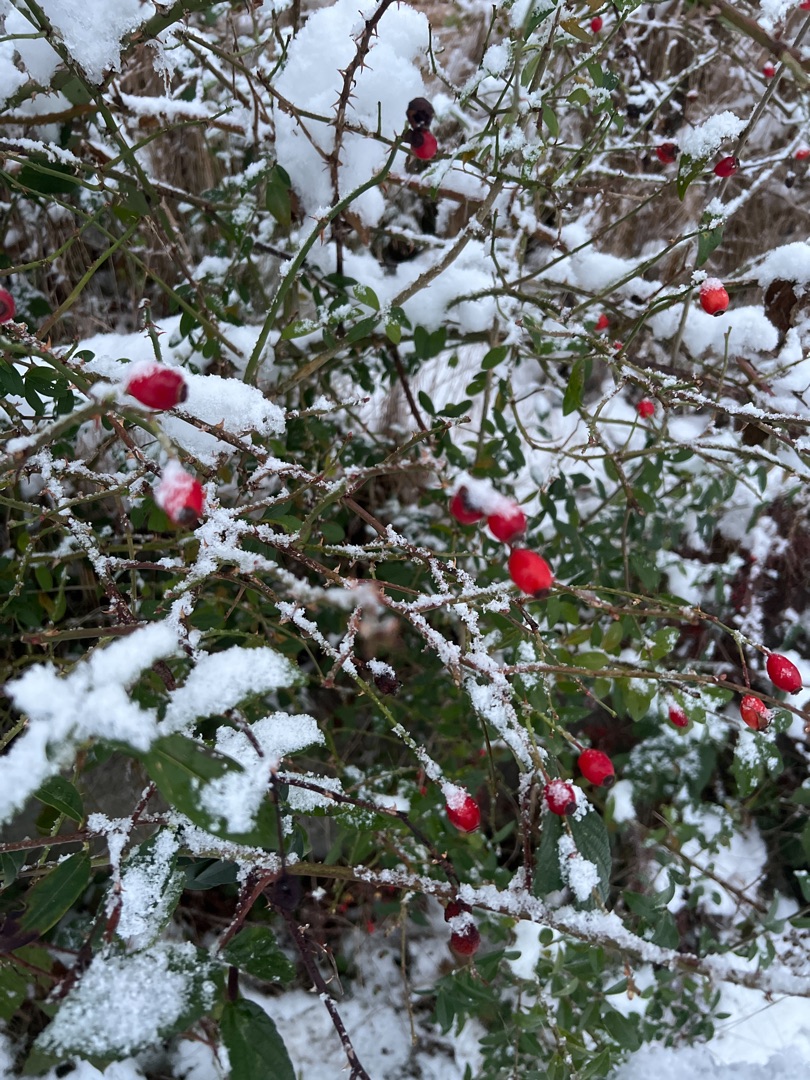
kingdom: Plantae
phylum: Tracheophyta
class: Magnoliopsida
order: Rosales
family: Rosaceae
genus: Rosa
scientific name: Rosa canina
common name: Glat hunde-rose
